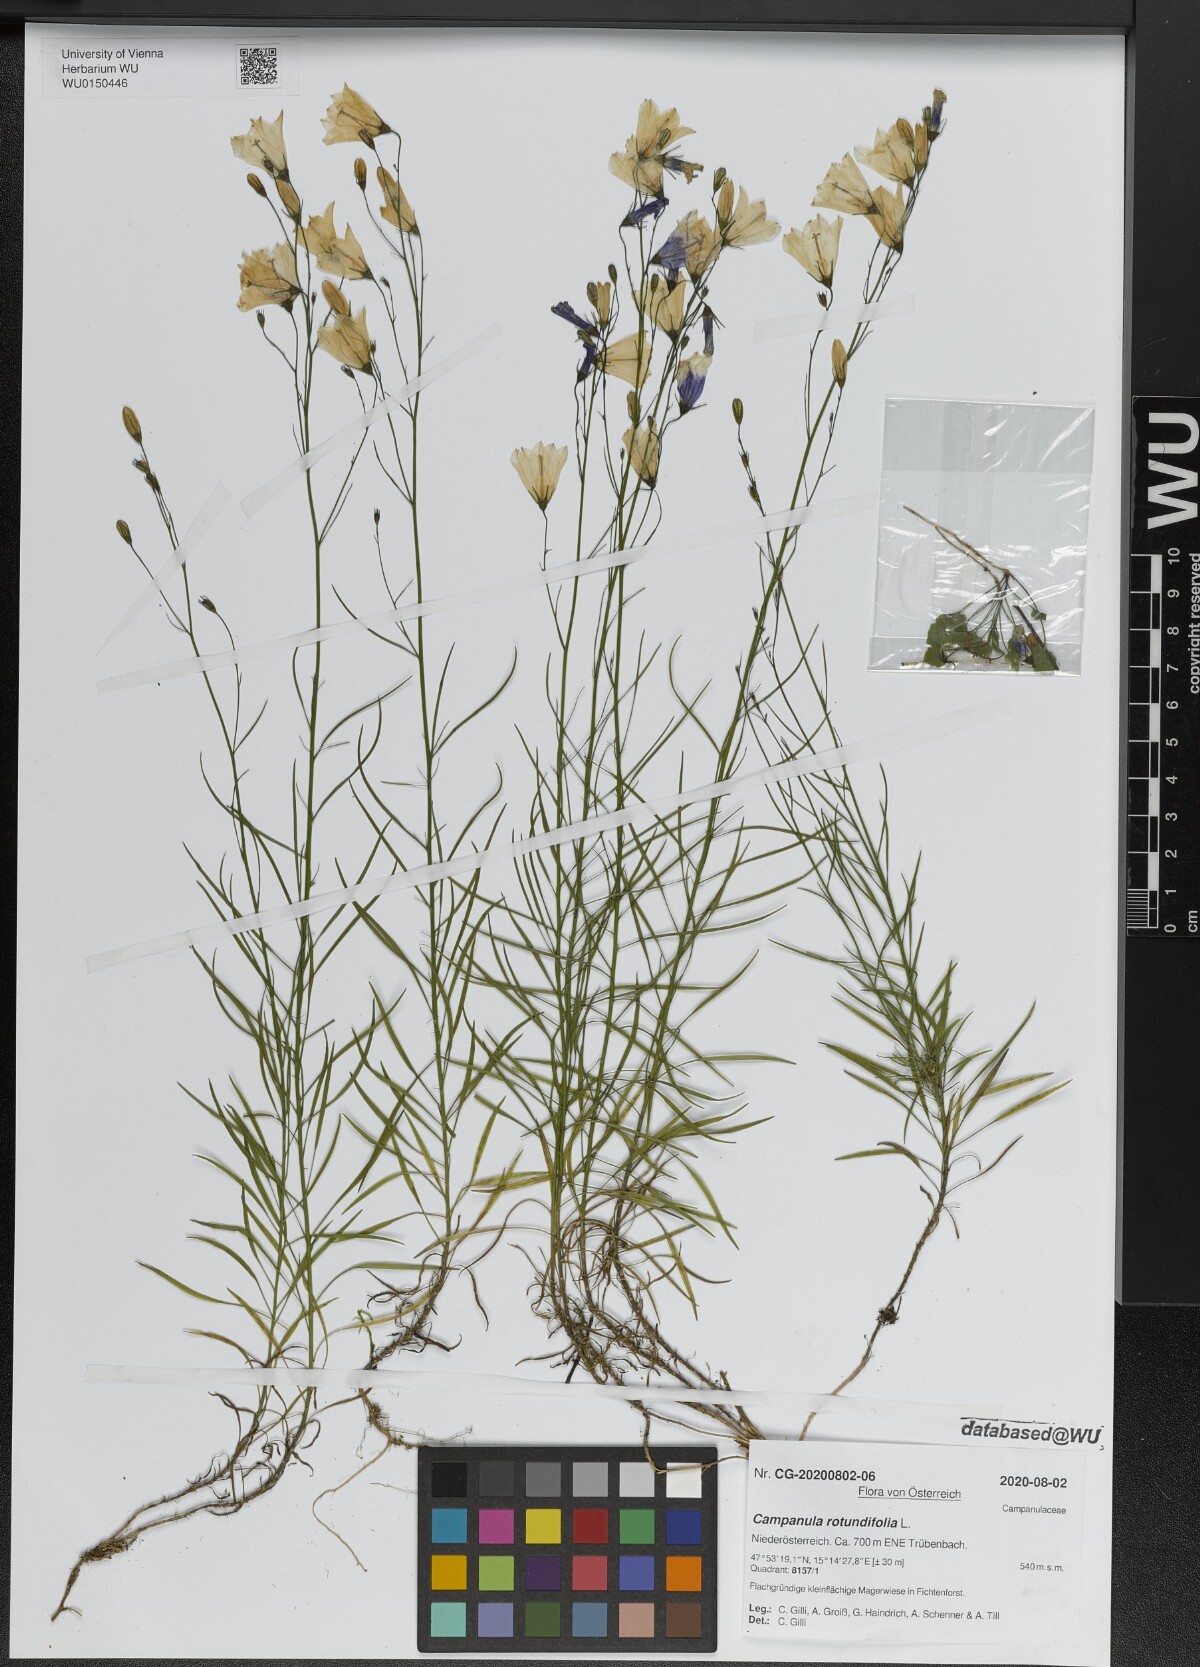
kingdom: Plantae
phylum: Tracheophyta
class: Magnoliopsida
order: Asterales
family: Campanulaceae
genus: Campanula
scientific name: Campanula rotundifolia
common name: Harebell
